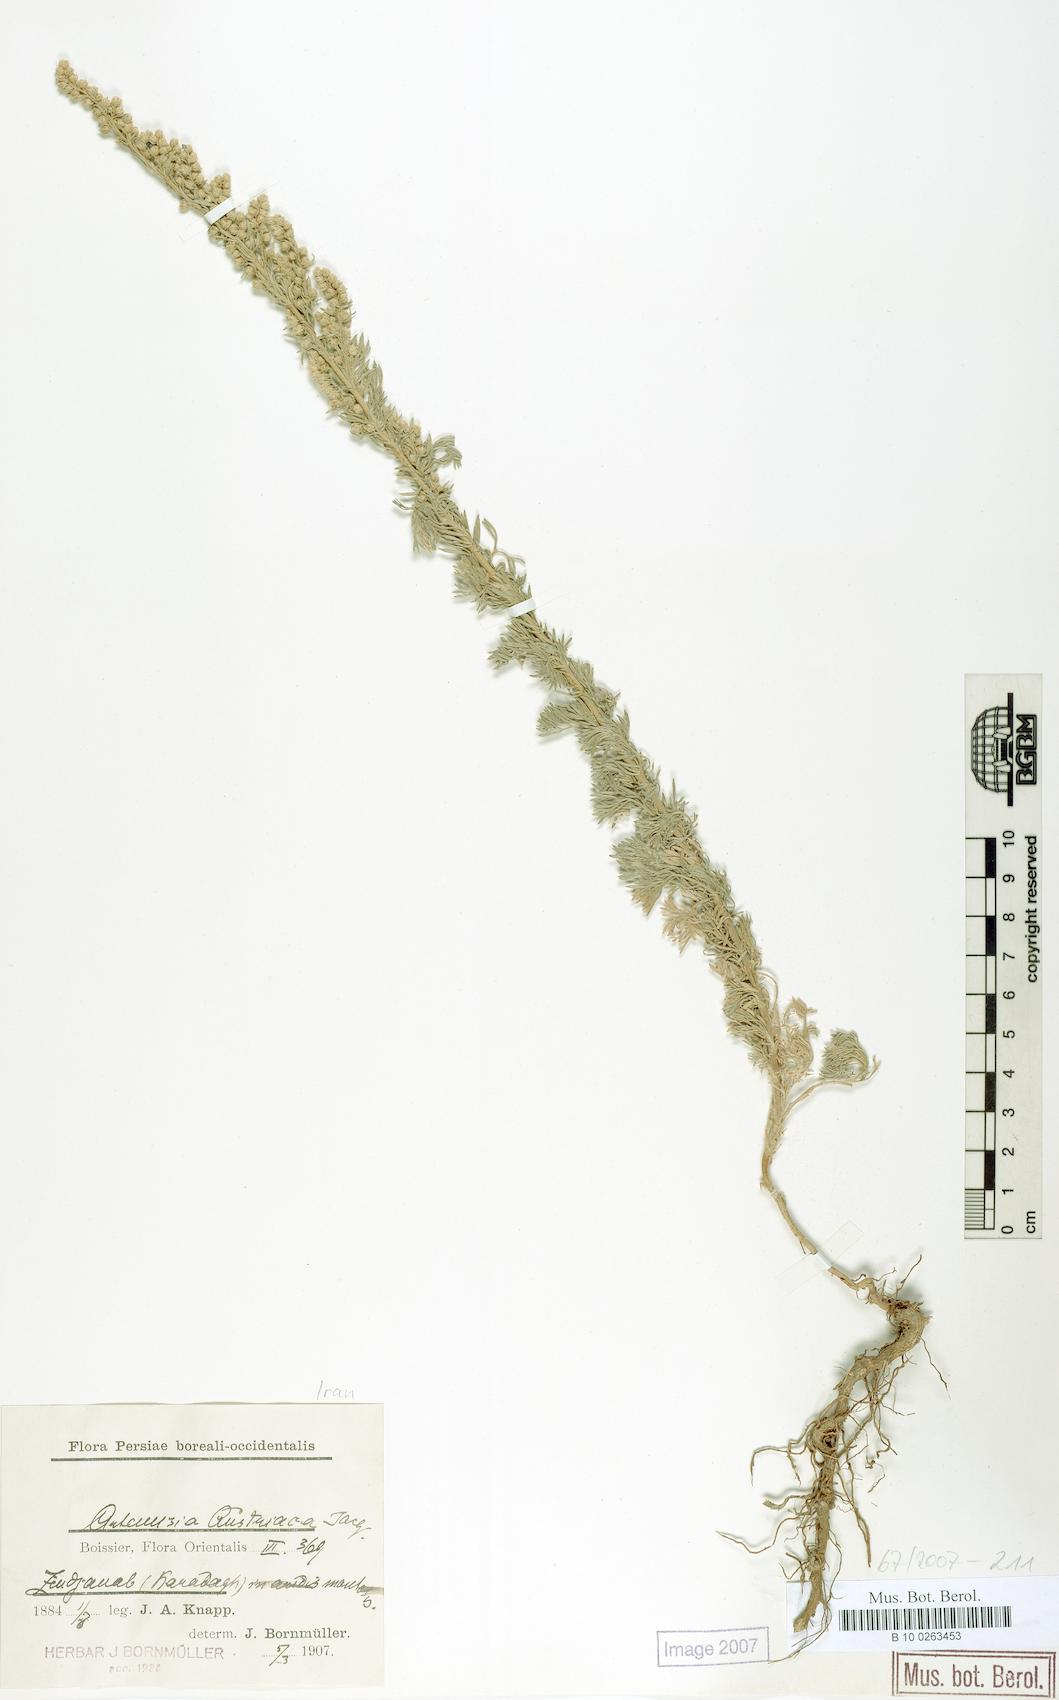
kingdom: Plantae
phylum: Tracheophyta
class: Magnoliopsida
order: Asterales
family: Asteraceae
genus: Artemisia
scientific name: Artemisia austriaca
